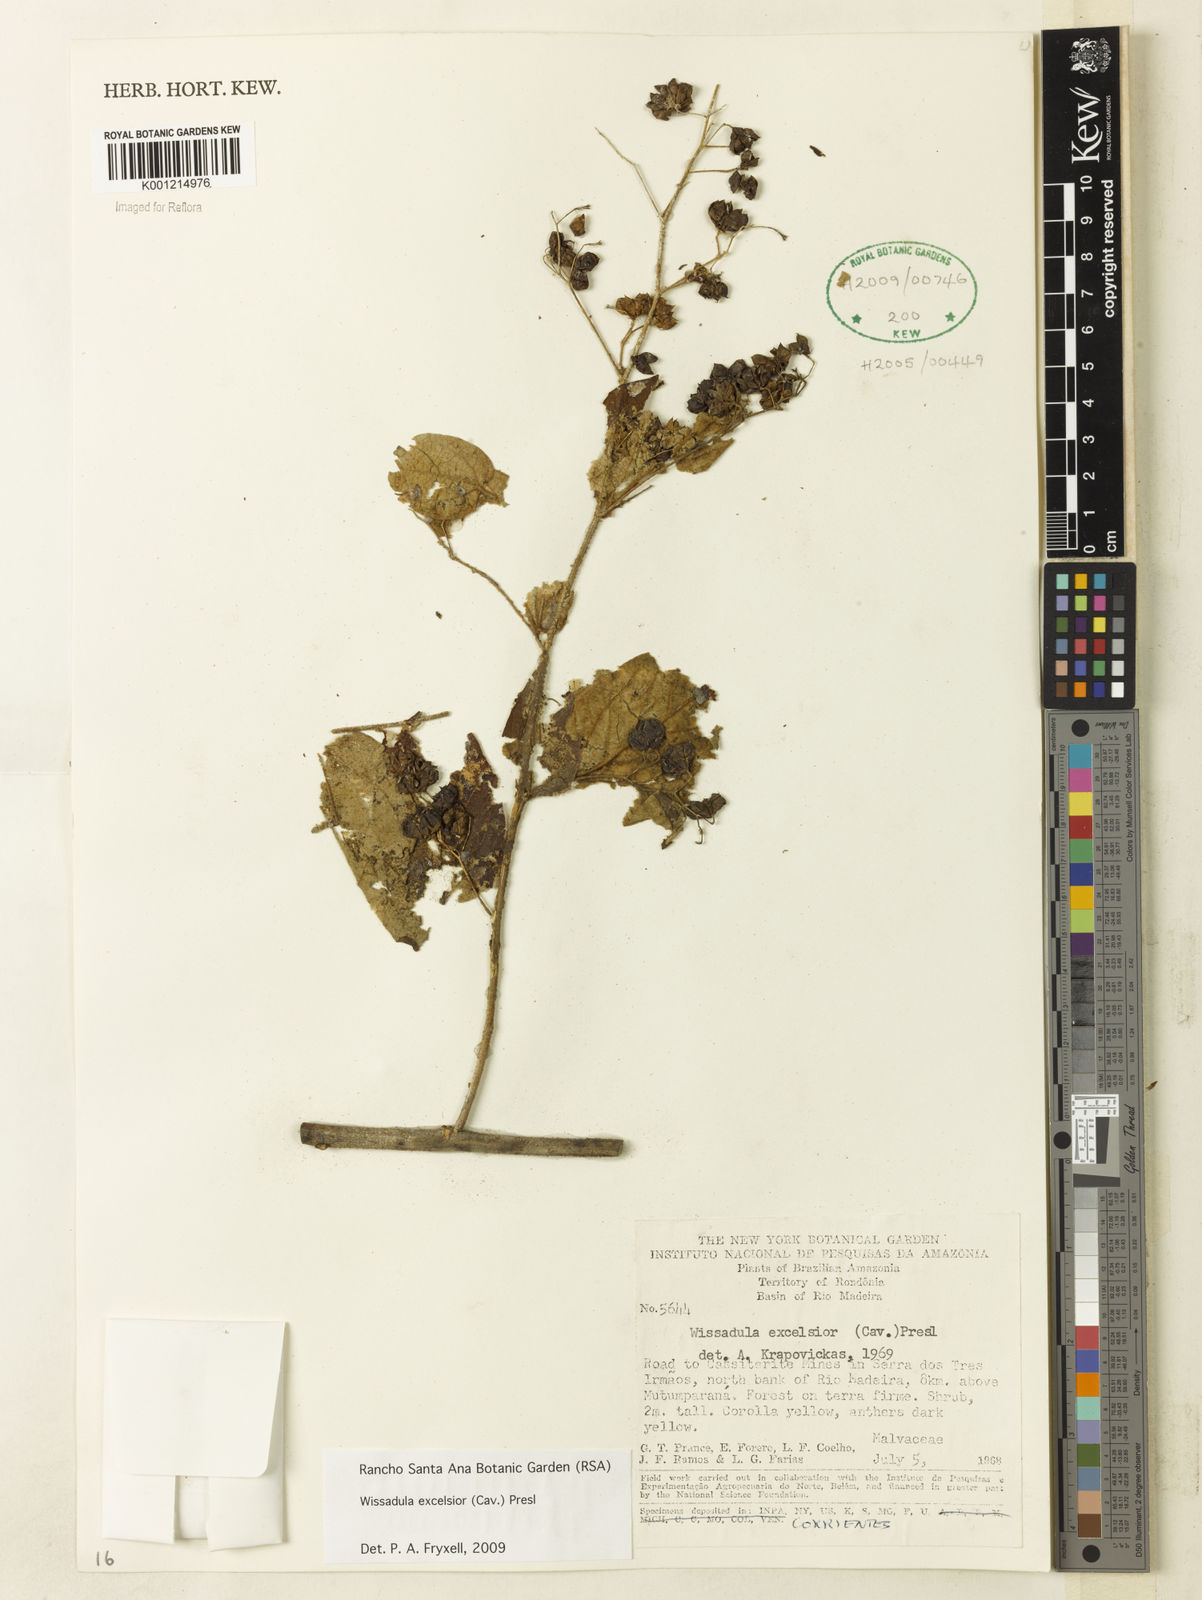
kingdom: Plantae
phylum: Tracheophyta
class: Magnoliopsida
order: Malvales
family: Malvaceae
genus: Wissadula
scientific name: Wissadula excelsior
